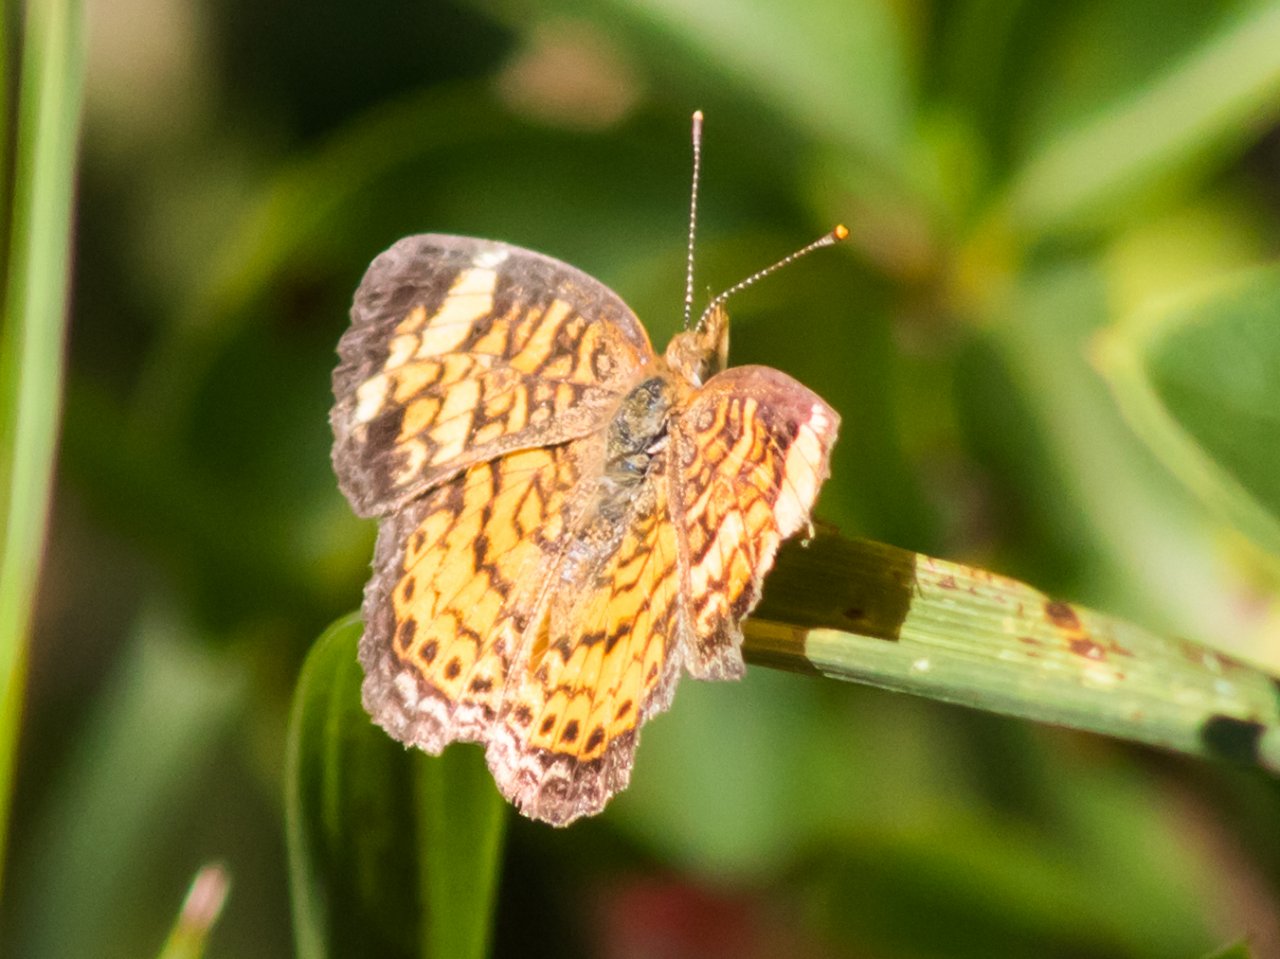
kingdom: Animalia
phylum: Arthropoda
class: Insecta
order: Lepidoptera
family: Nymphalidae
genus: Phyciodes
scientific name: Phyciodes tharos
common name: Pearl Crescent
